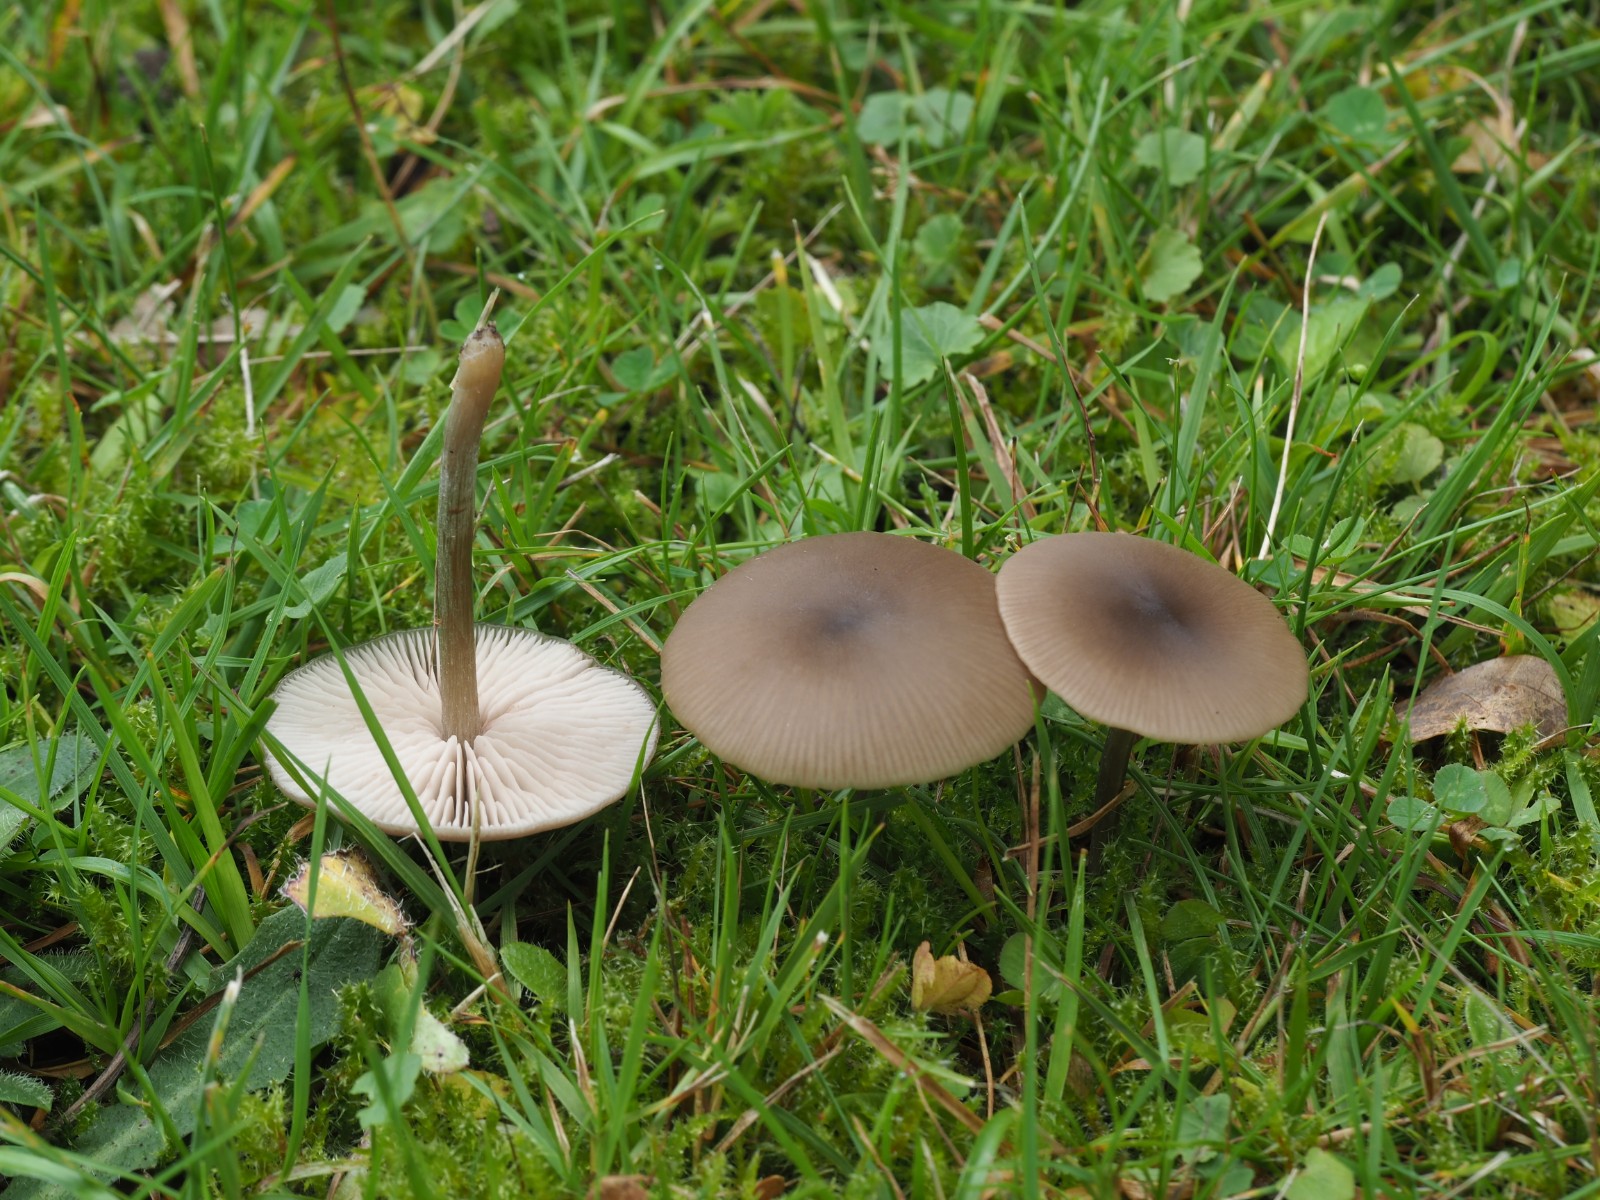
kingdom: Fungi
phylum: Basidiomycota
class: Agaricomycetes
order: Agaricales
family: Entolomataceae
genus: Entoloma
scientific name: Entoloma sericeum
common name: silkeglinsende rødblad
